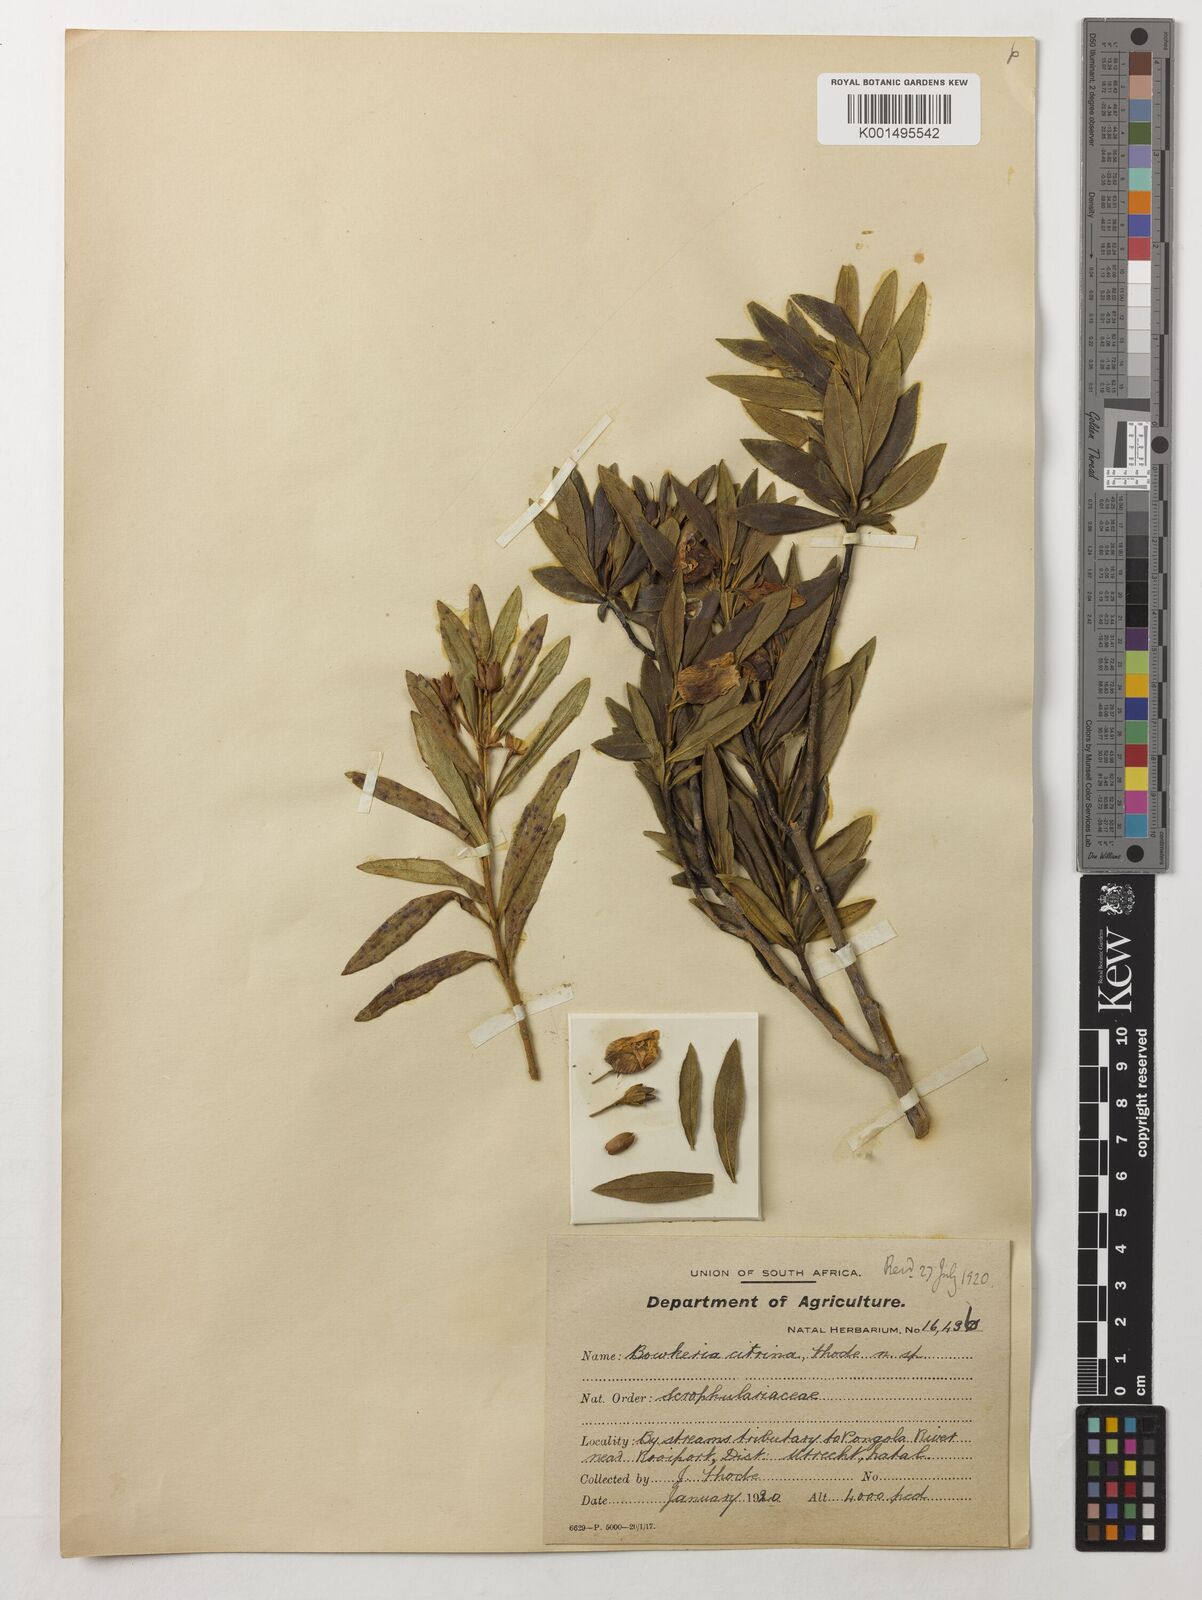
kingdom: Plantae
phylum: Tracheophyta
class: Magnoliopsida
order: Lamiales
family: Stilbaceae
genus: Bowkeria
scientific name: Bowkeria citrina
